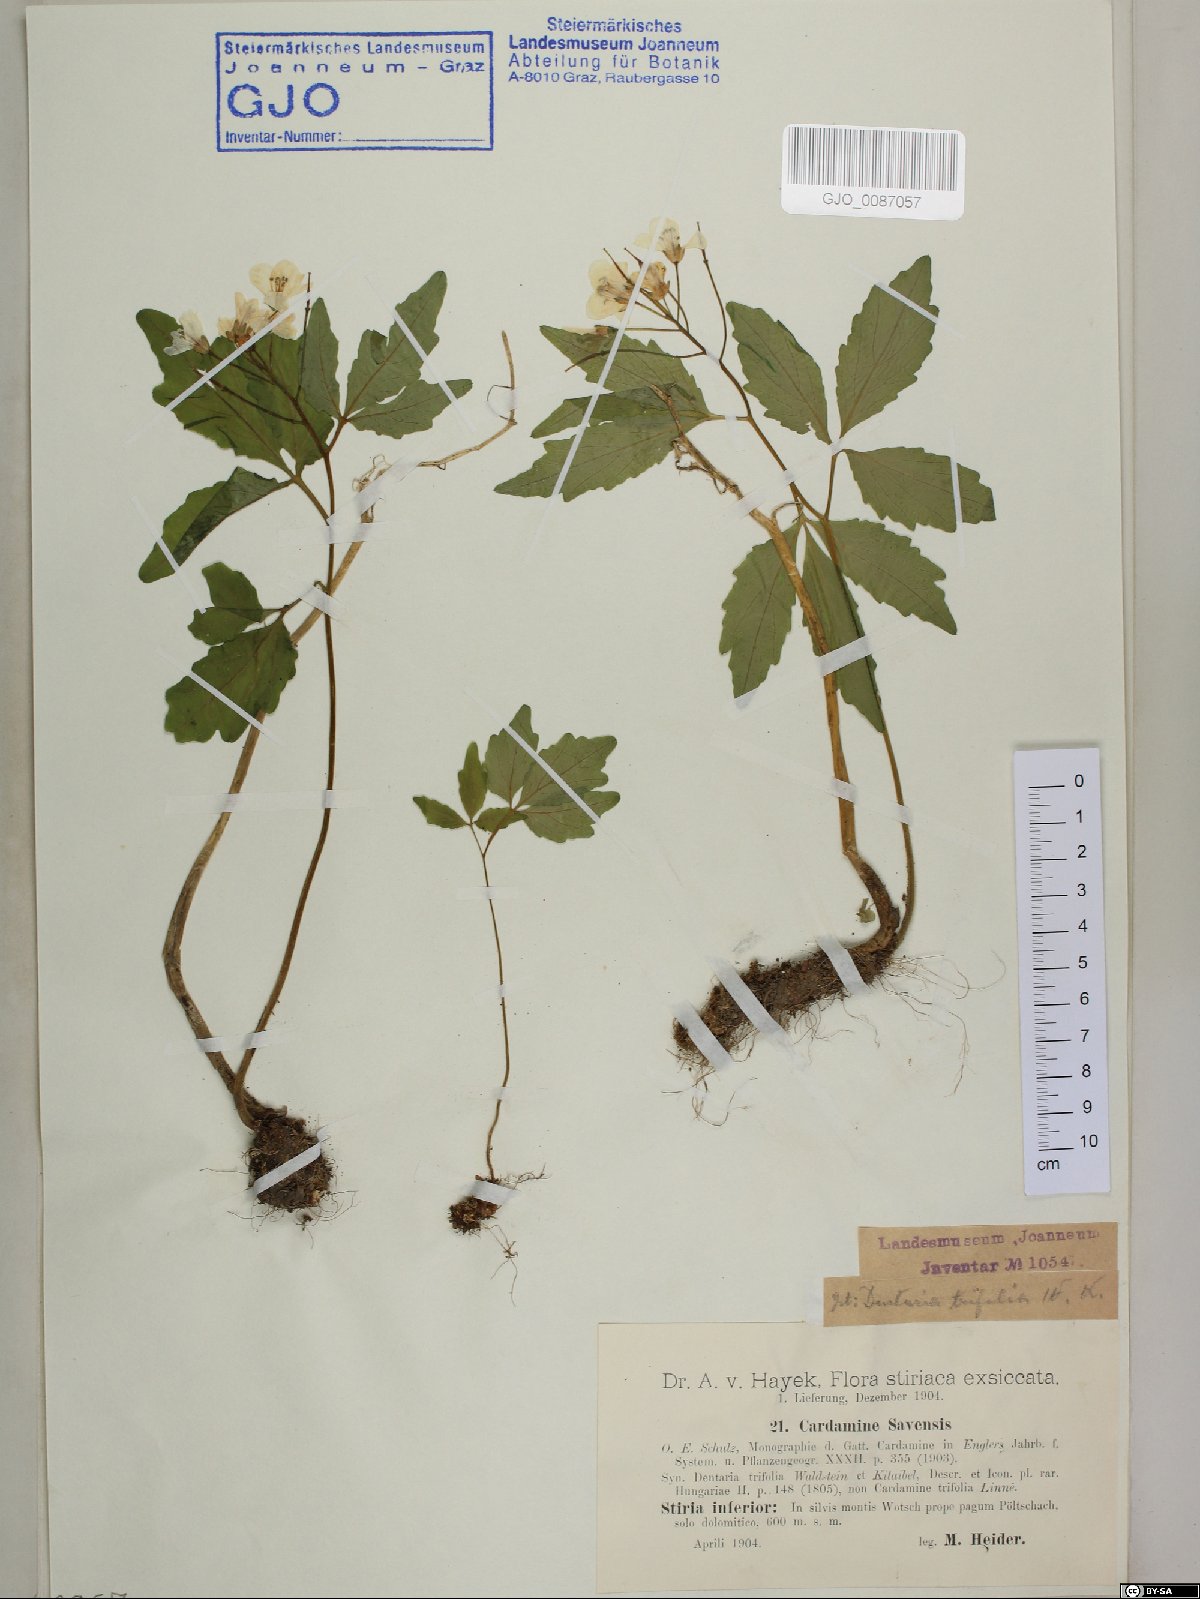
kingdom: Plantae
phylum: Tracheophyta
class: Magnoliopsida
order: Brassicales
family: Brassicaceae
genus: Cardamine
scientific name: Cardamine waldsteinii
